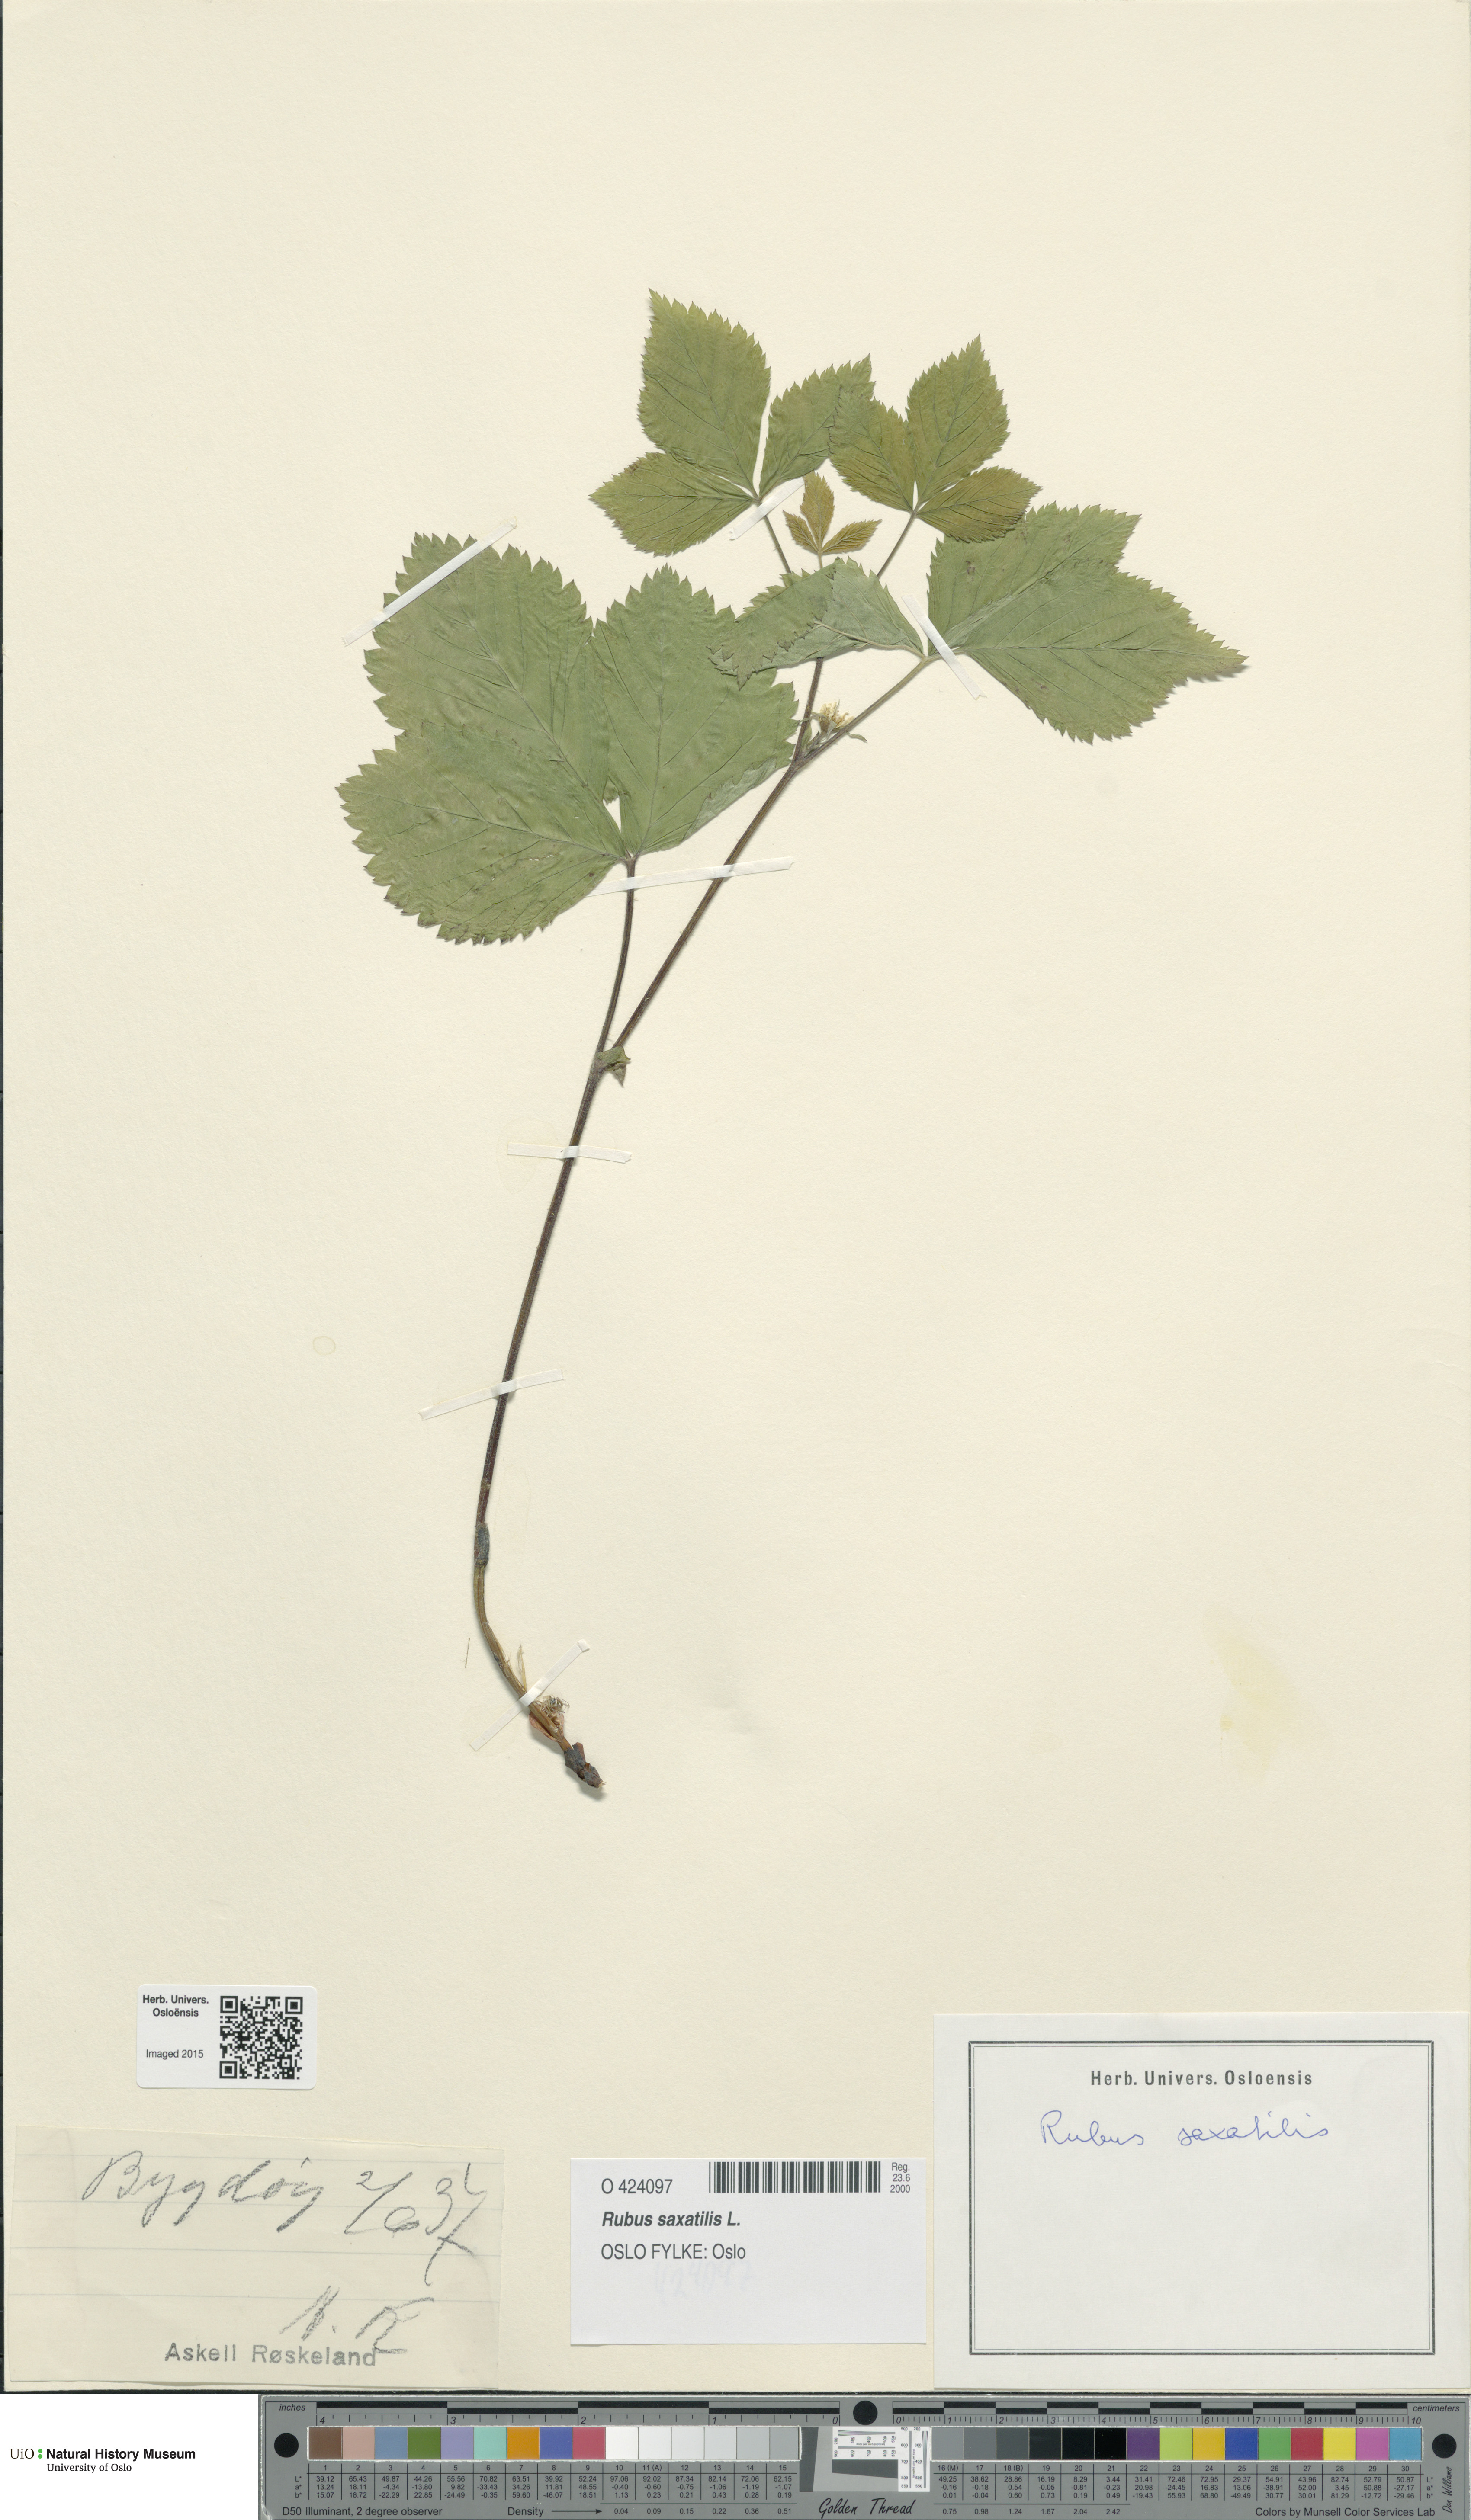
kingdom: Plantae
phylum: Tracheophyta
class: Magnoliopsida
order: Rosales
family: Rosaceae
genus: Rubus
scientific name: Rubus saxatilis
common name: Stone bramble
